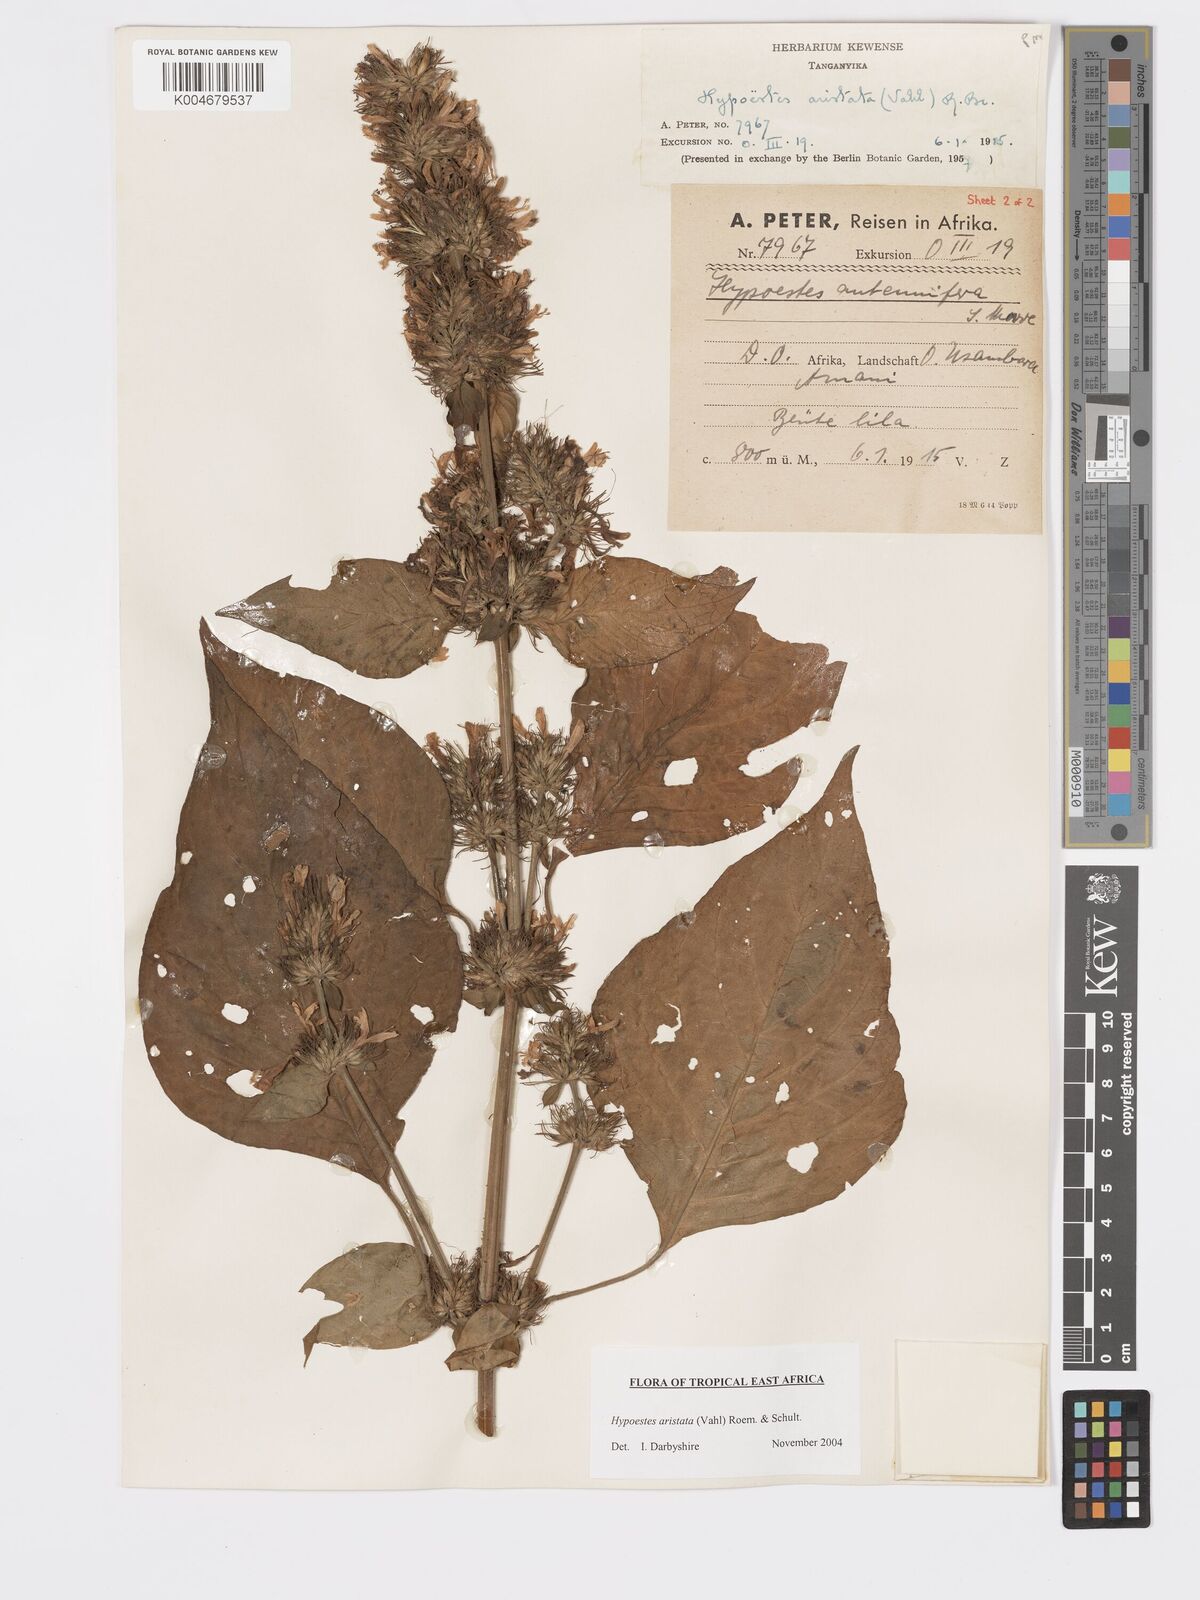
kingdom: Plantae
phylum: Tracheophyta
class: Magnoliopsida
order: Lamiales
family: Acanthaceae
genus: Hypoestes
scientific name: Hypoestes aristata
